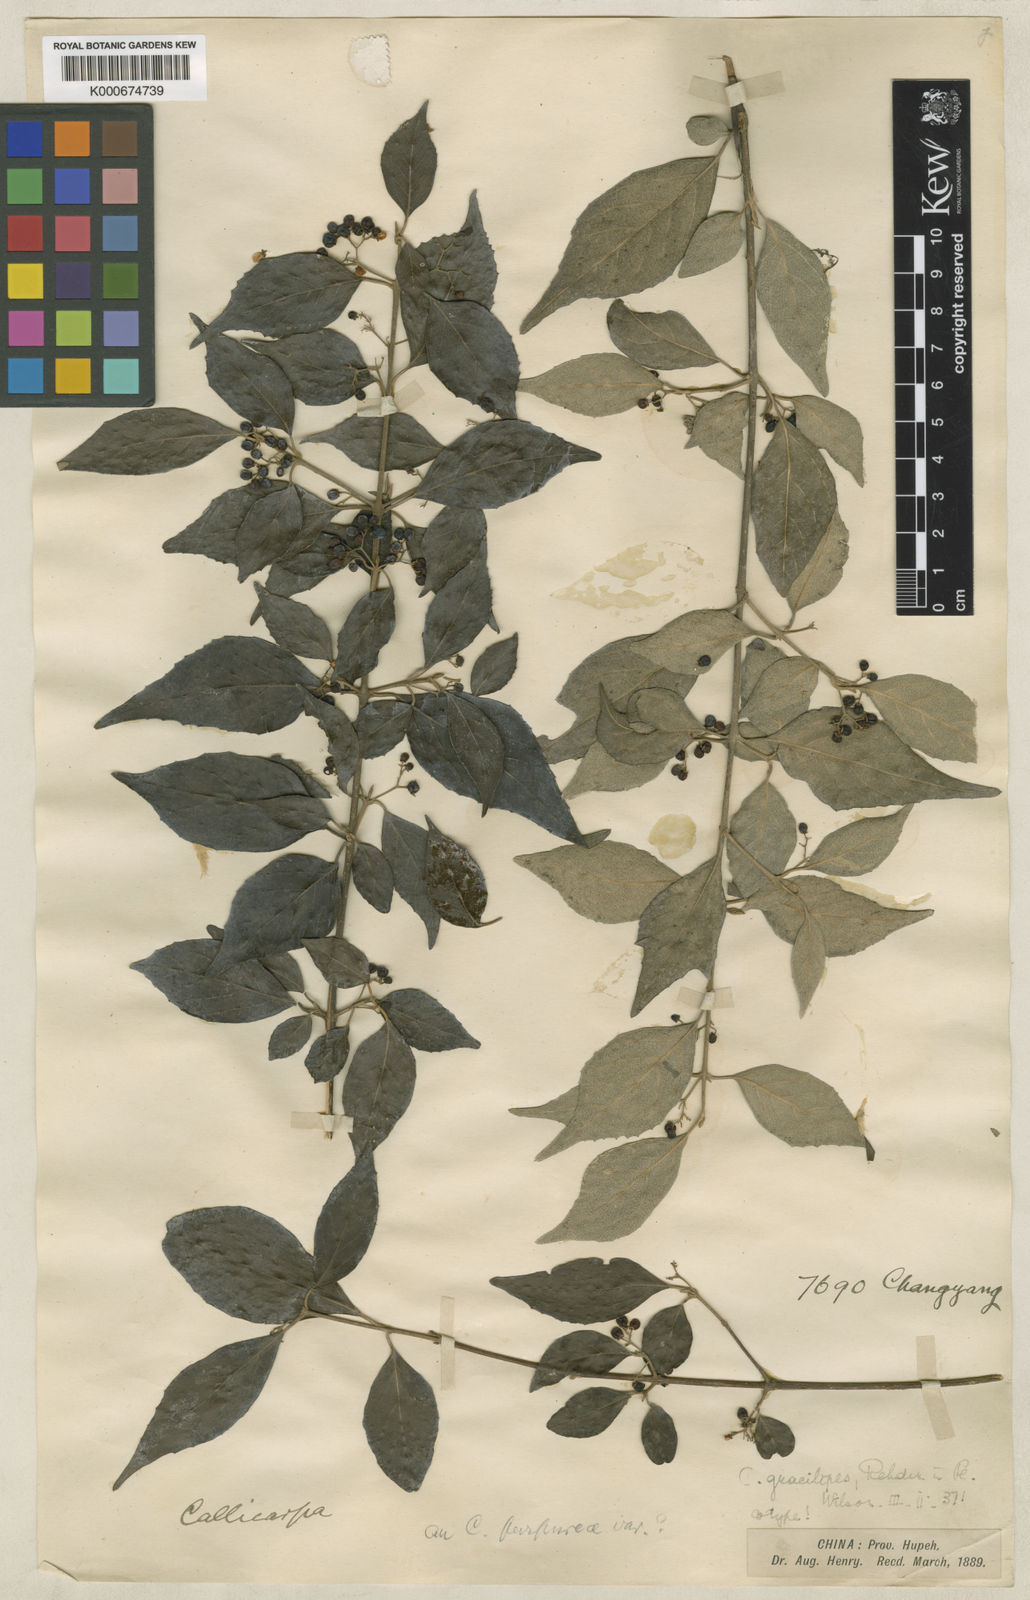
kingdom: Plantae
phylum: Tracheophyta
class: Magnoliopsida
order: Lamiales
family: Lamiaceae
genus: Callicarpa
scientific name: Callicarpa gracilipes
